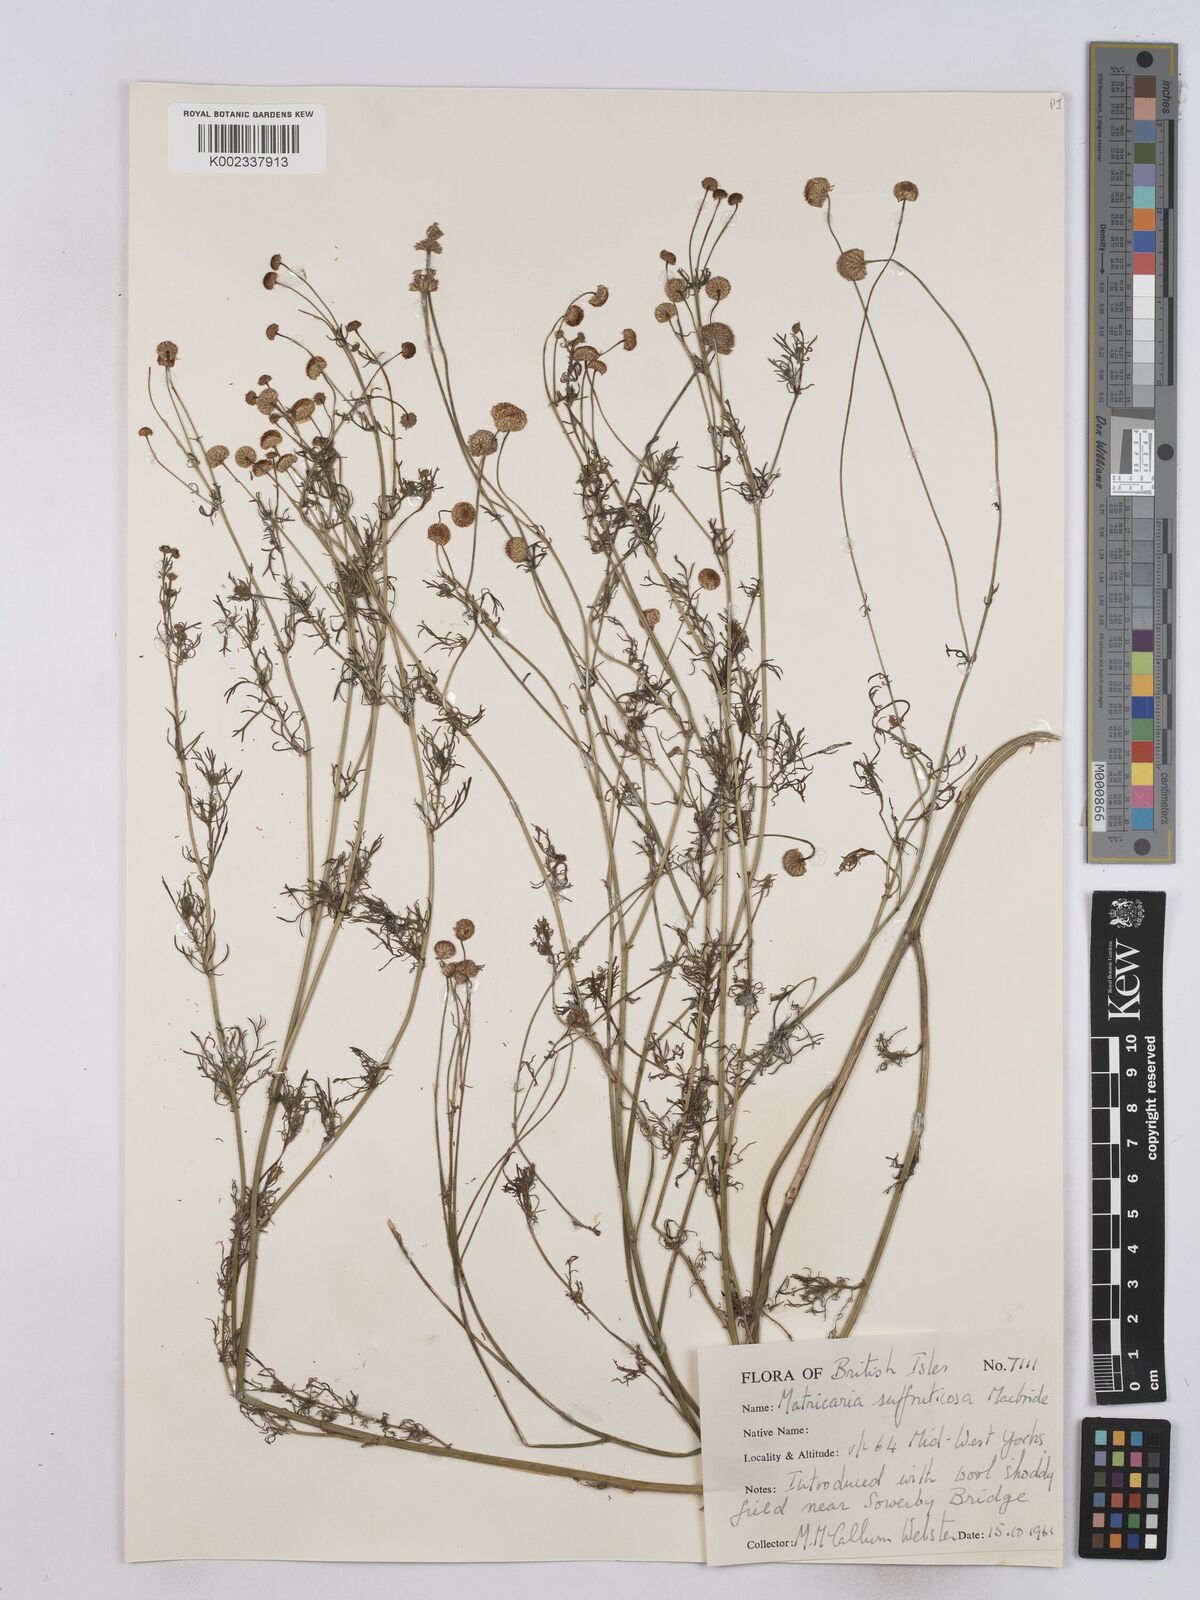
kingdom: Plantae
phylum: Tracheophyta
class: Magnoliopsida
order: Asterales
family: Asteraceae
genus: Oncosiphon
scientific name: Oncosiphon suffruticosus
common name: Shrubby mayweed
